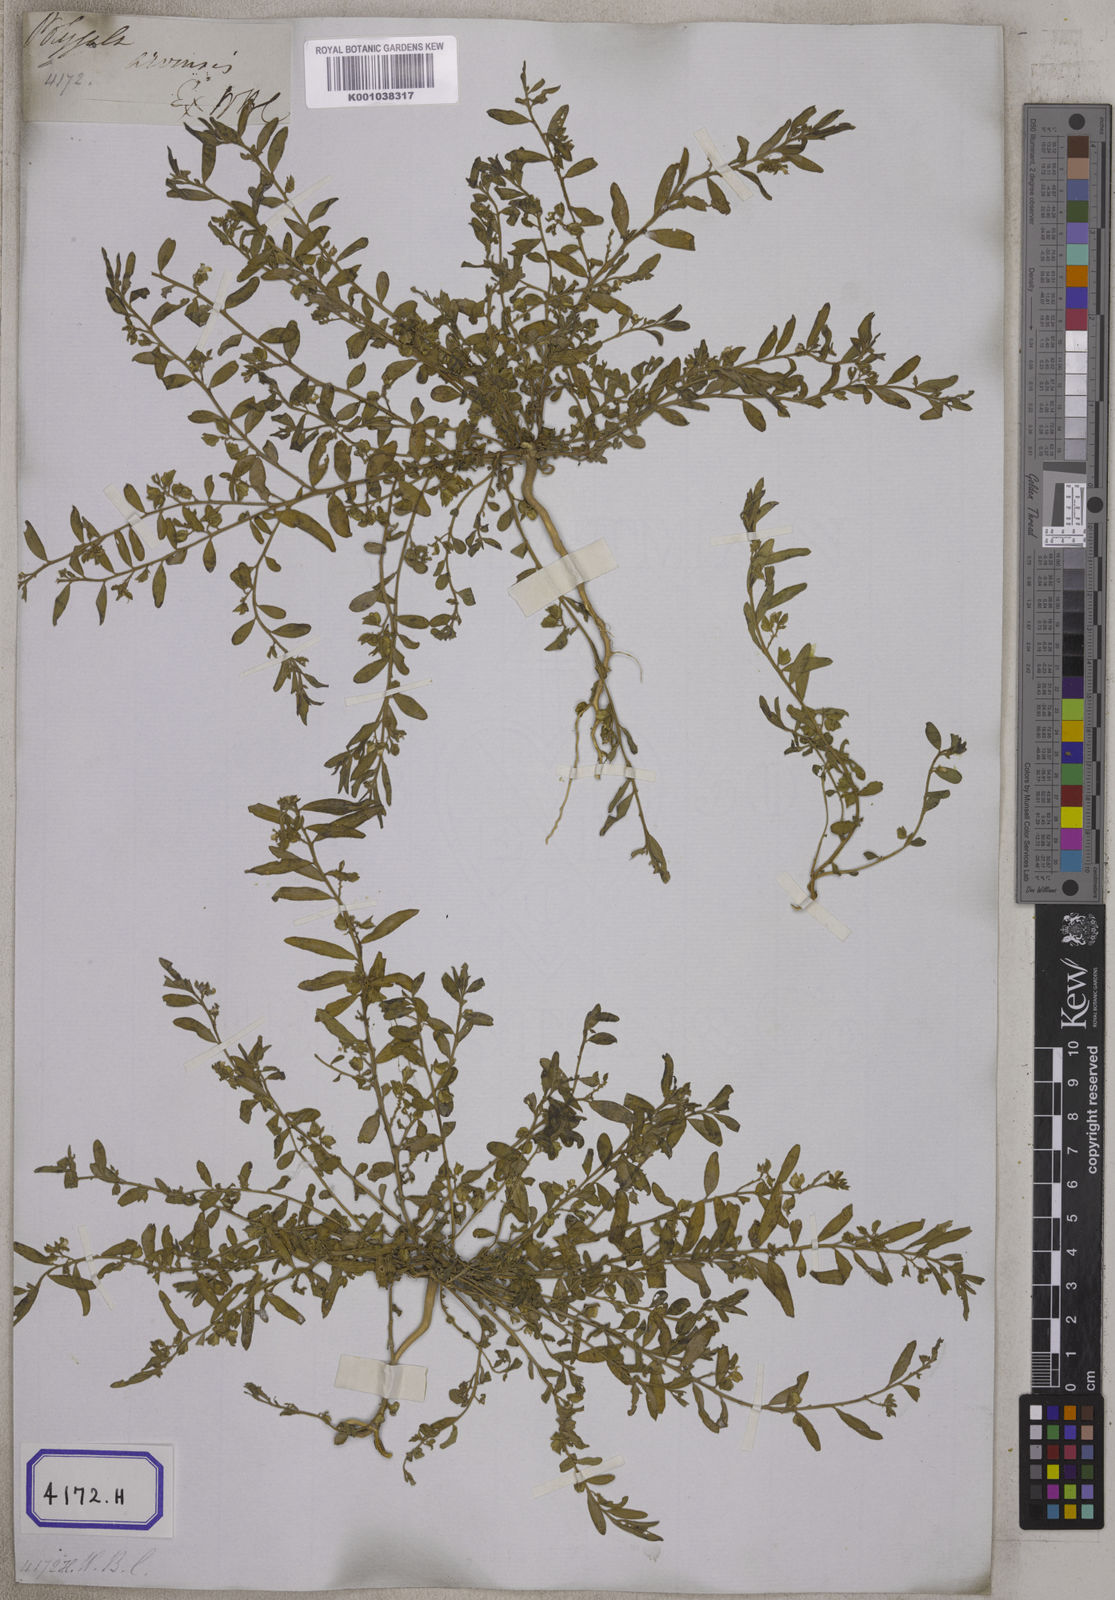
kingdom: Plantae
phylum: Tracheophyta
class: Magnoliopsida
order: Fabales
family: Polygalaceae
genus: Polygala
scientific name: Polygala
